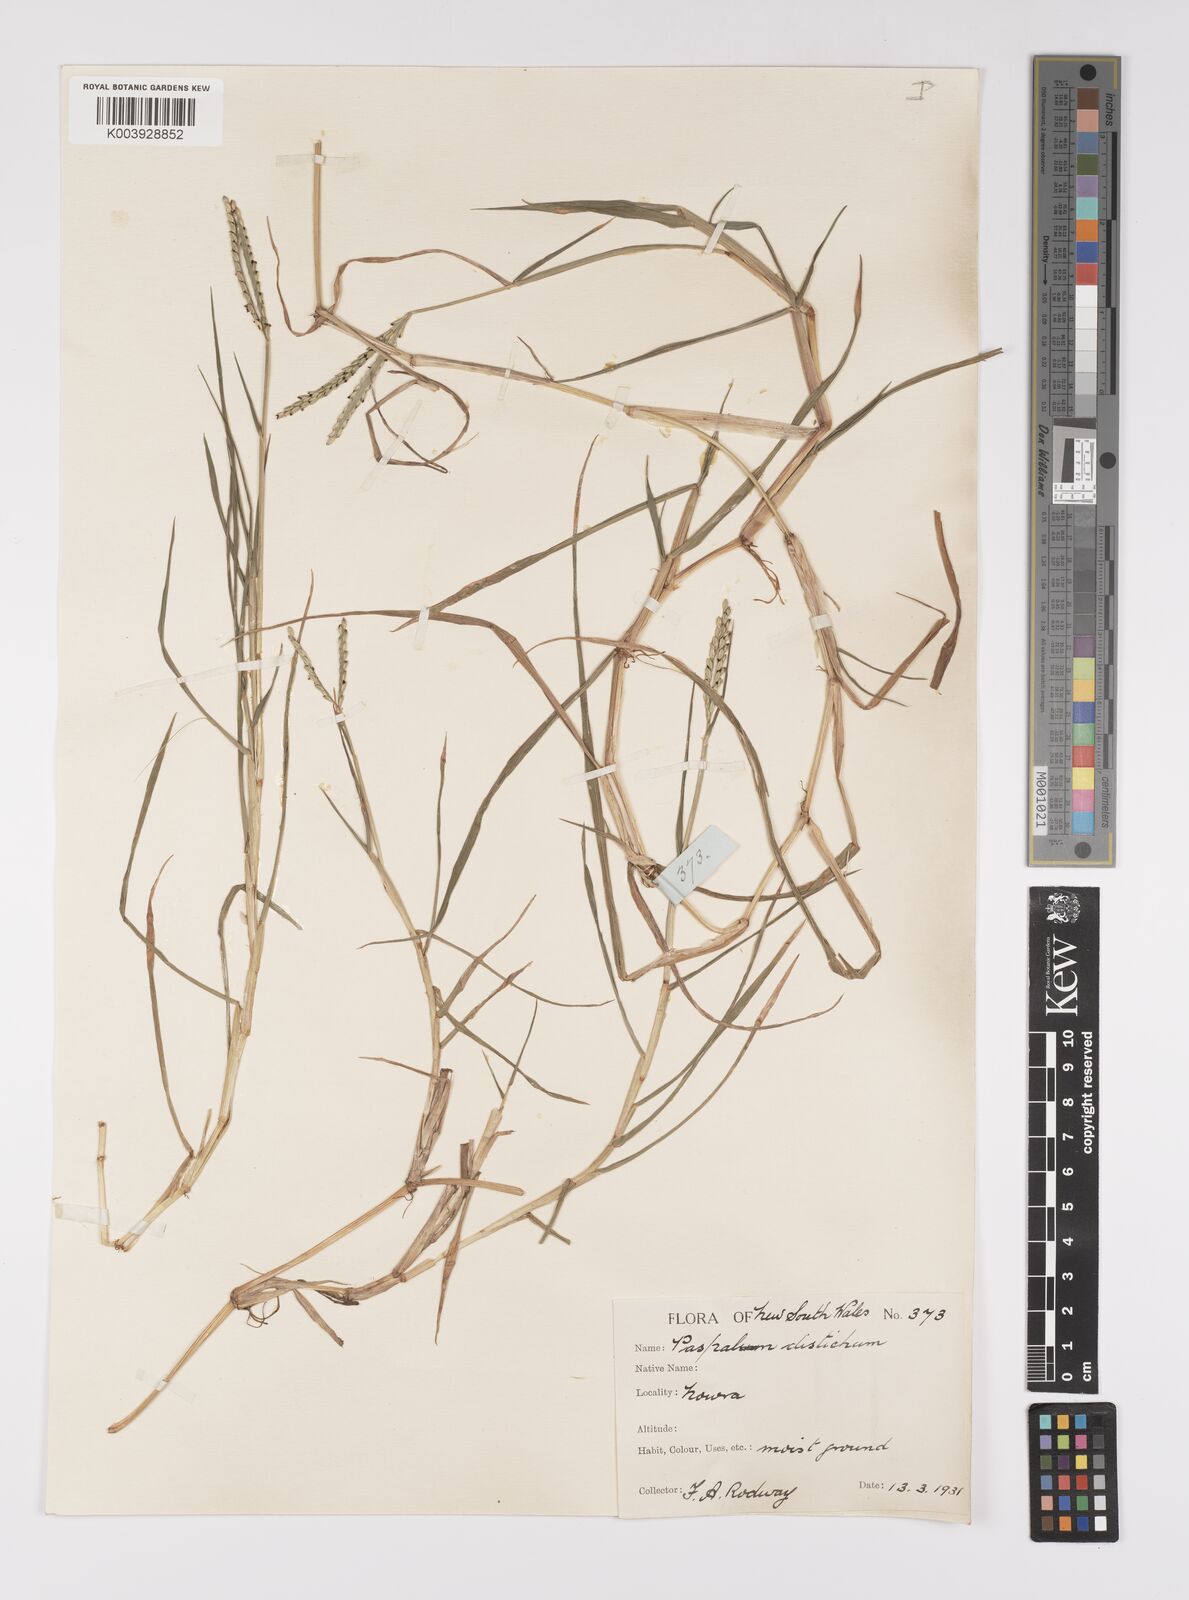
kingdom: Plantae
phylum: Tracheophyta
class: Liliopsida
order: Poales
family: Poaceae
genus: Paspalum
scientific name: Paspalum distichum
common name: Knotgrass
